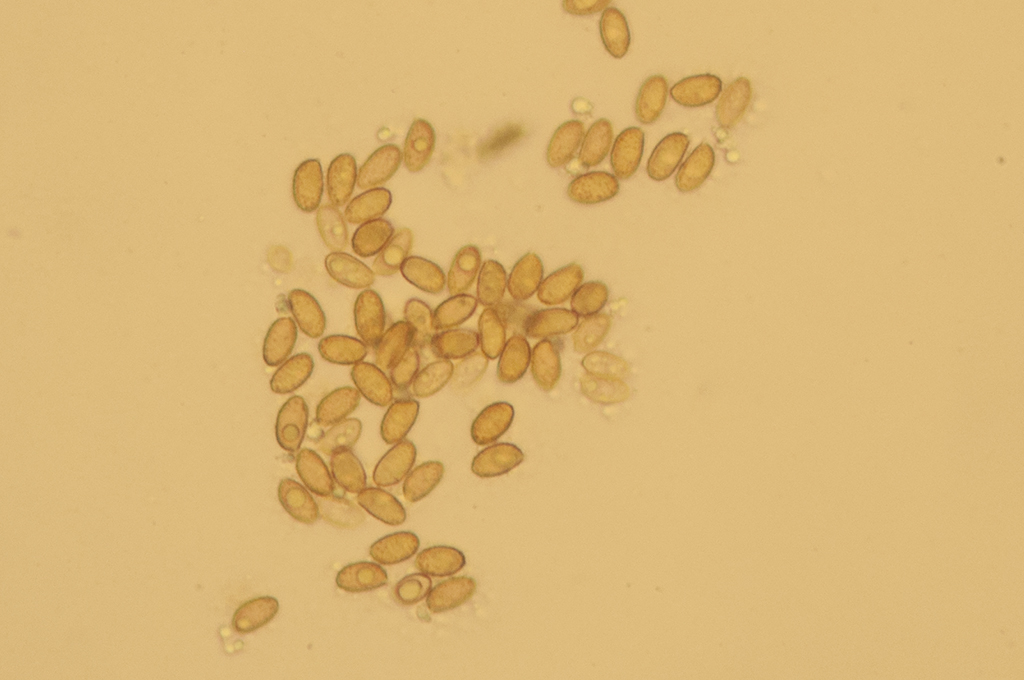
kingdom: Fungi
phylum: Basidiomycota
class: Agaricomycetes
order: Agaricales
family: Cortinariaceae
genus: Cortinarius
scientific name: Cortinarius saturninus
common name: brunviolet slørhat
